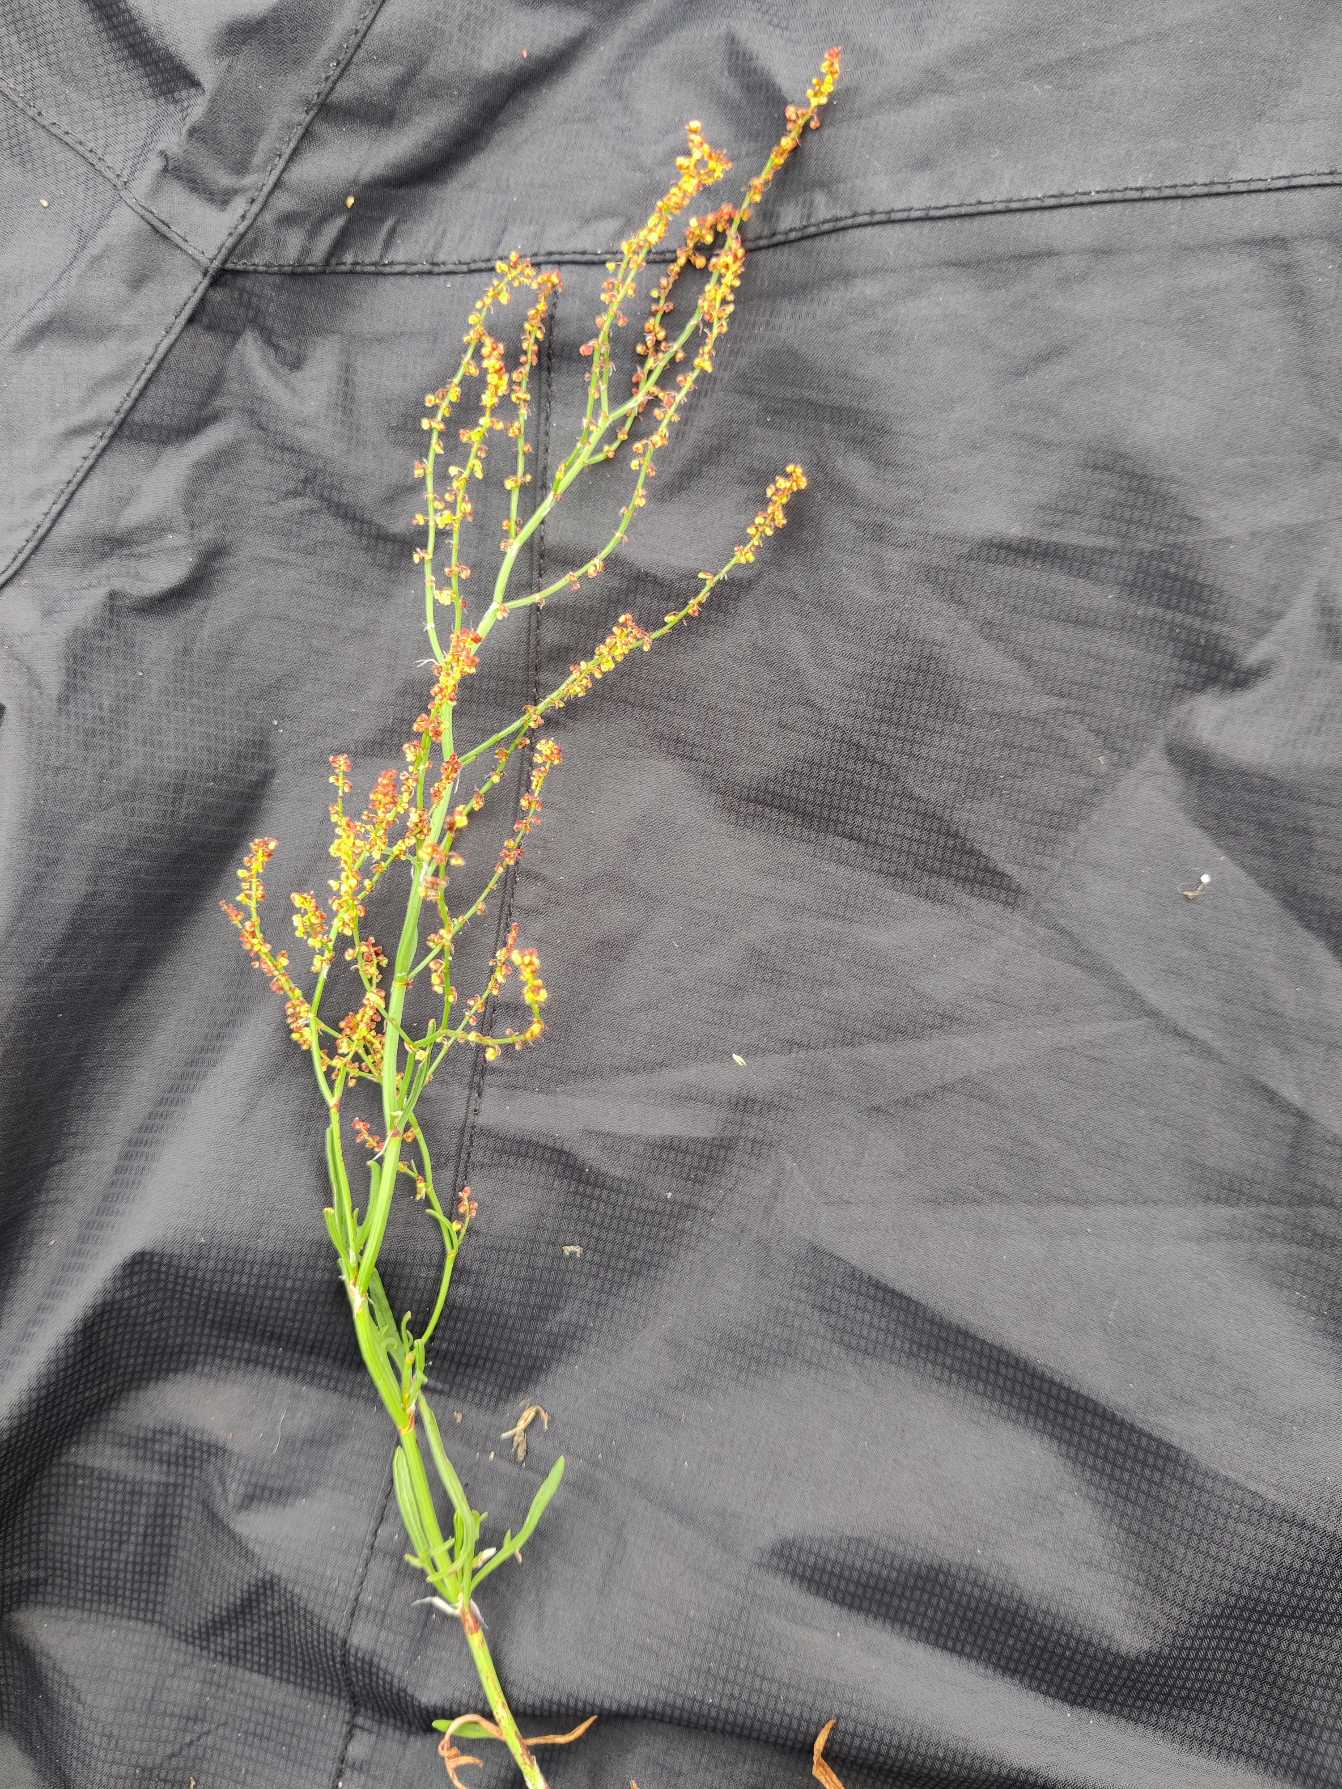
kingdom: Plantae
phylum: Tracheophyta
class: Magnoliopsida
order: Caryophyllales
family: Polygonaceae
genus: Rumex
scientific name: Rumex acetosella
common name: Rødknæ
